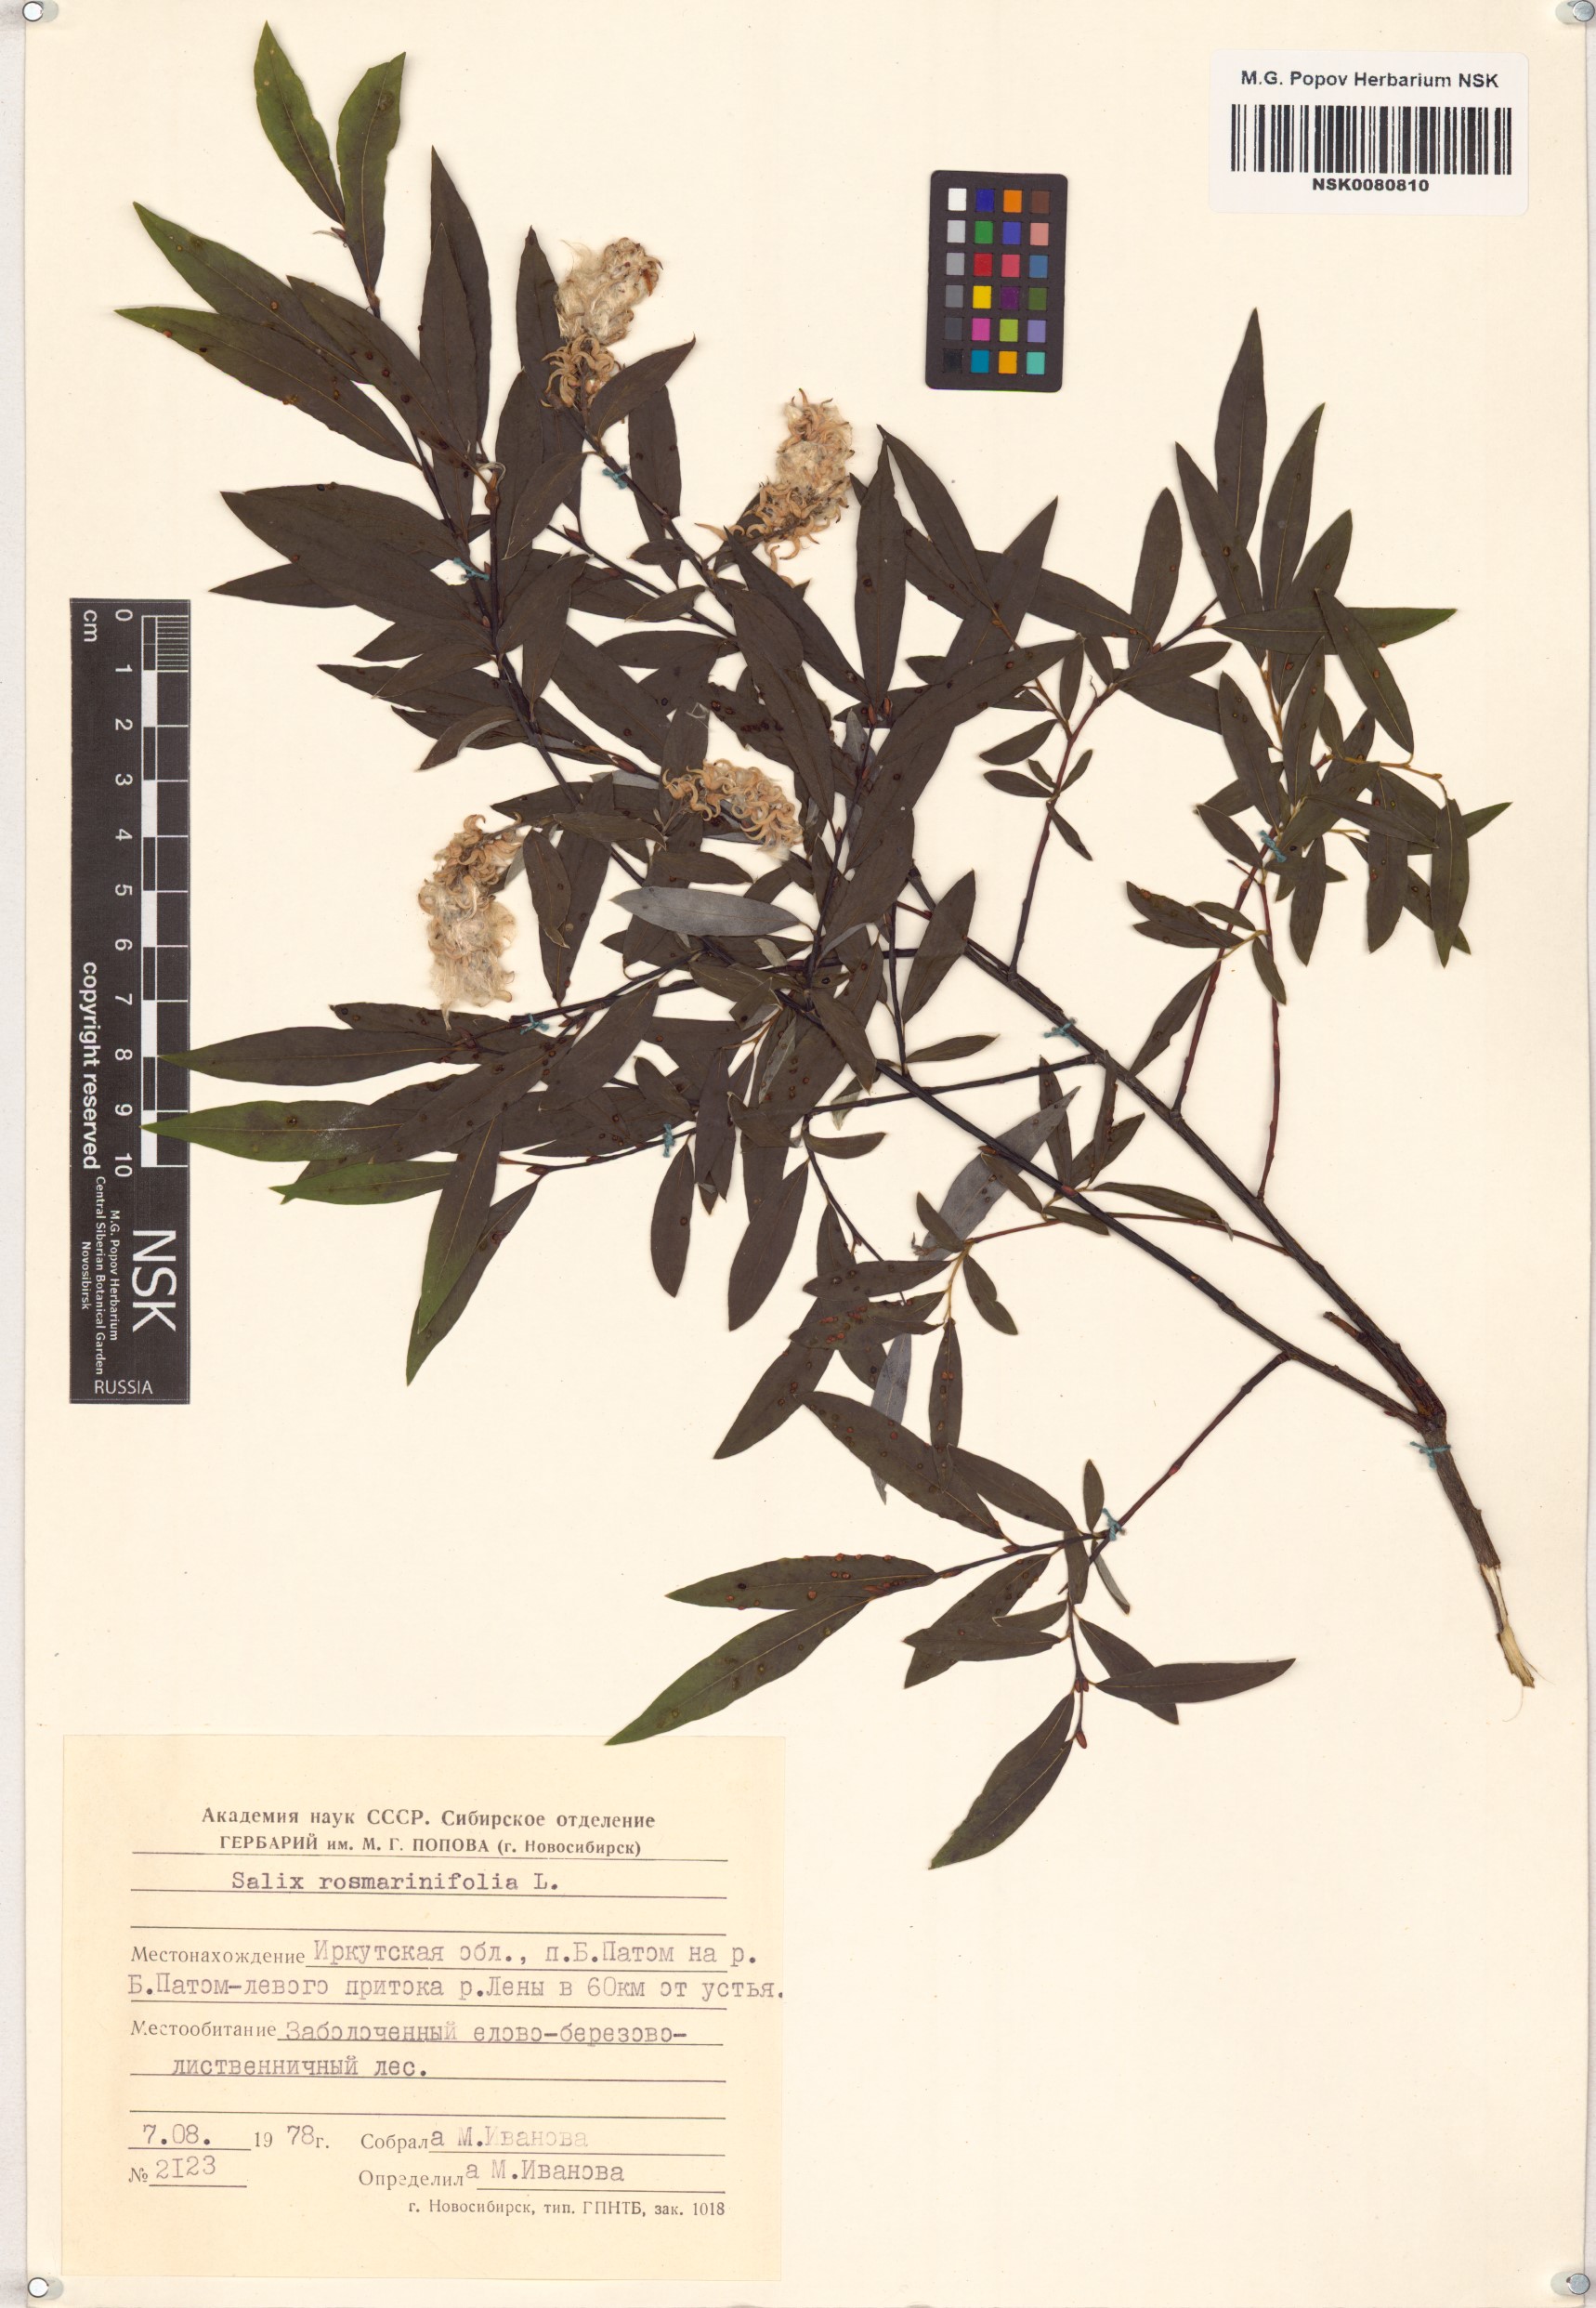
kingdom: Plantae
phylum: Tracheophyta
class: Magnoliopsida
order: Malpighiales
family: Salicaceae
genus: Salix
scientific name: Salix rosmarinifolia
